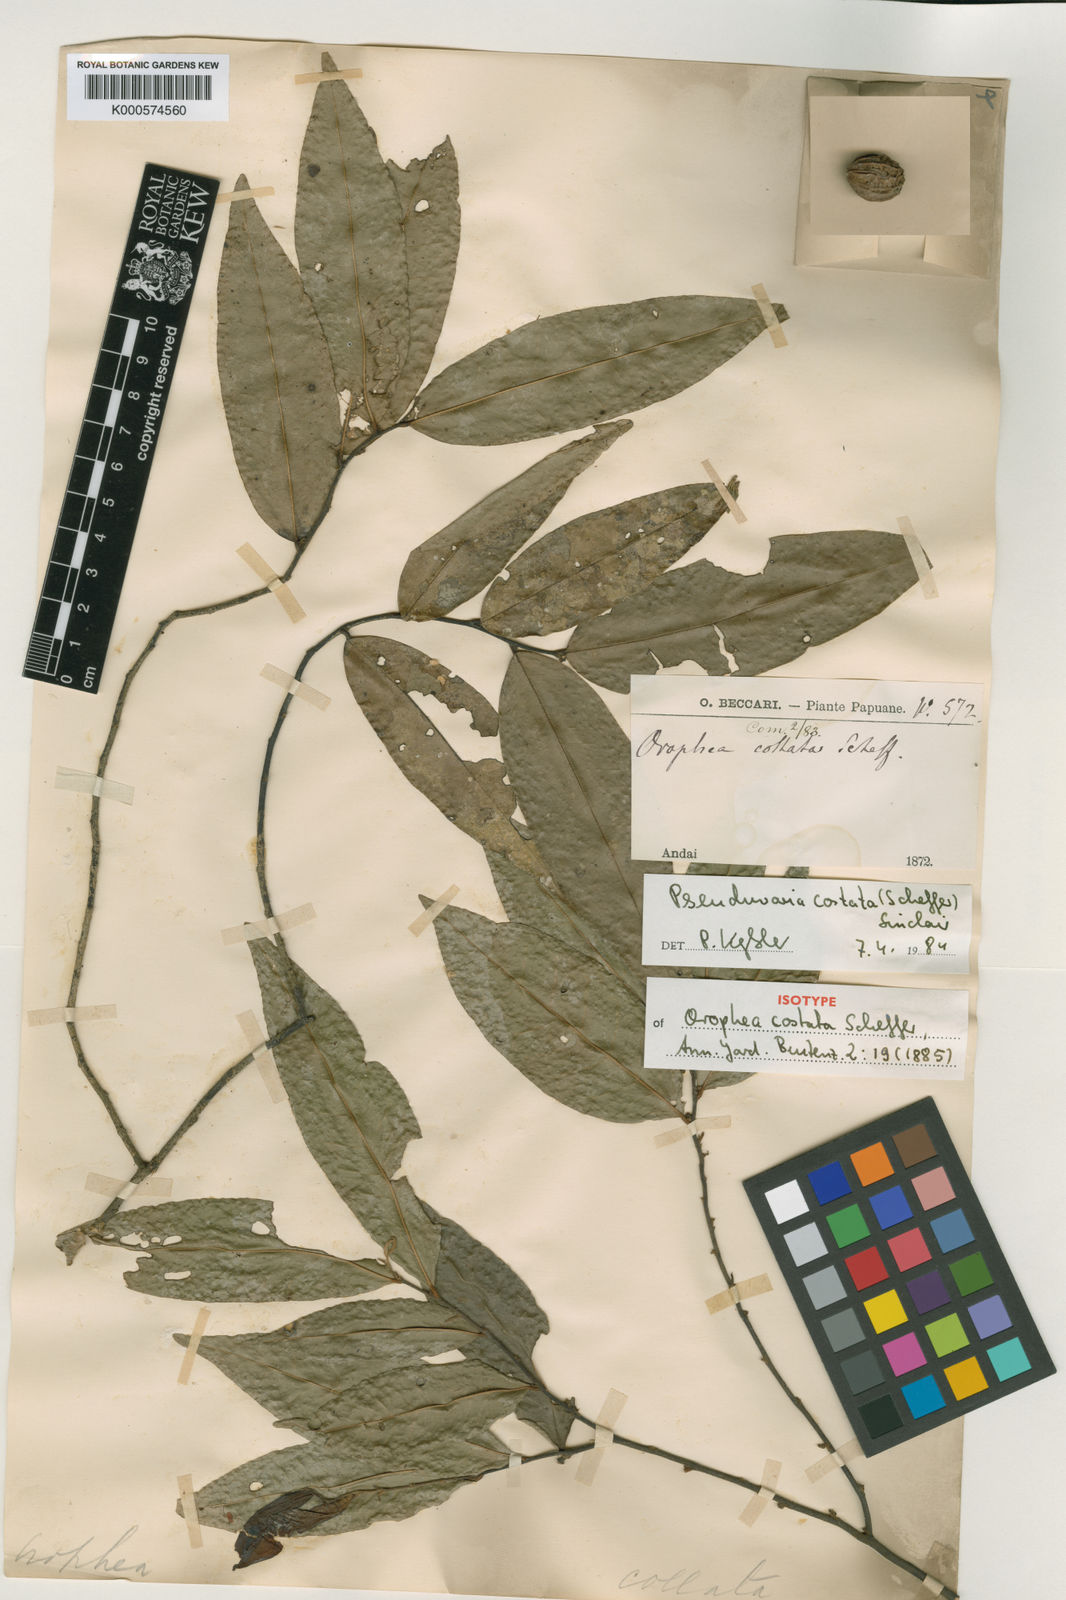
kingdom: Plantae
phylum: Tracheophyta
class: Magnoliopsida
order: Magnoliales
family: Annonaceae
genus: Pseuduvaria
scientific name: Pseuduvaria costata
